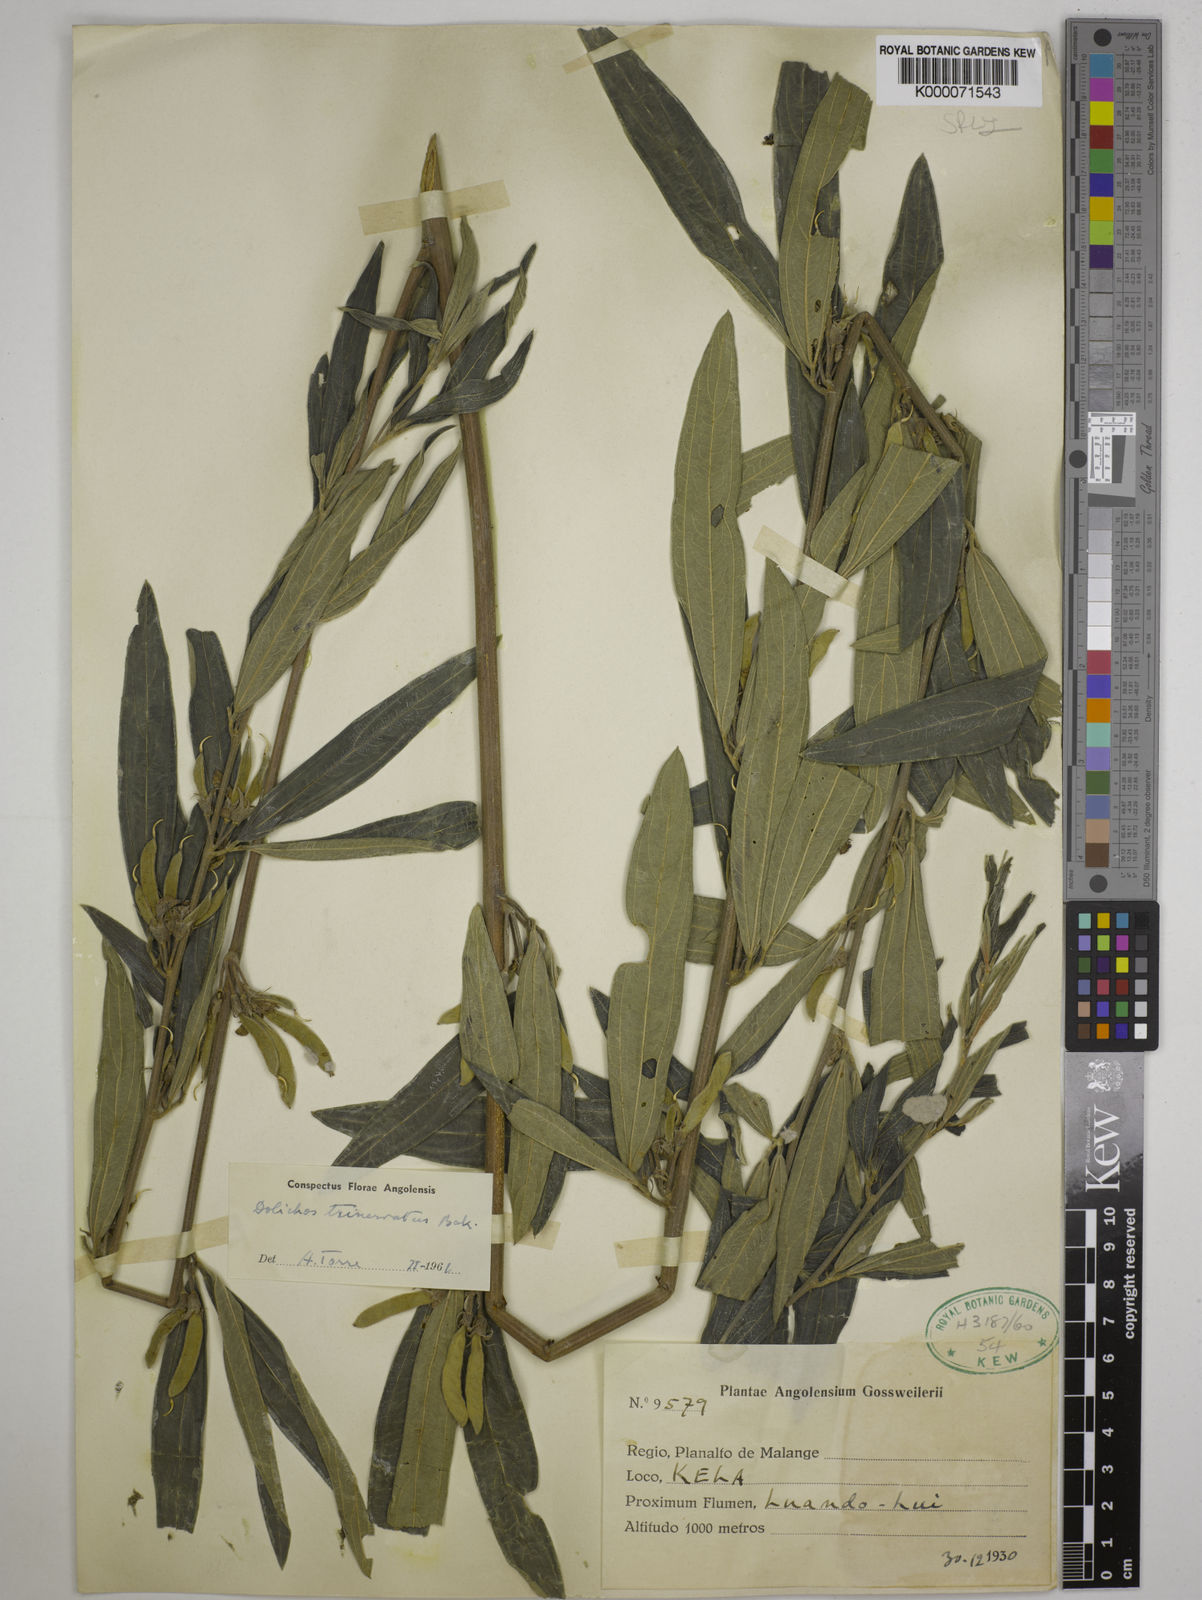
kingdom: Plantae
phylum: Tracheophyta
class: Magnoliopsida
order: Fabales
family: Fabaceae
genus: Dolichos
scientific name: Dolichos trinervatus
